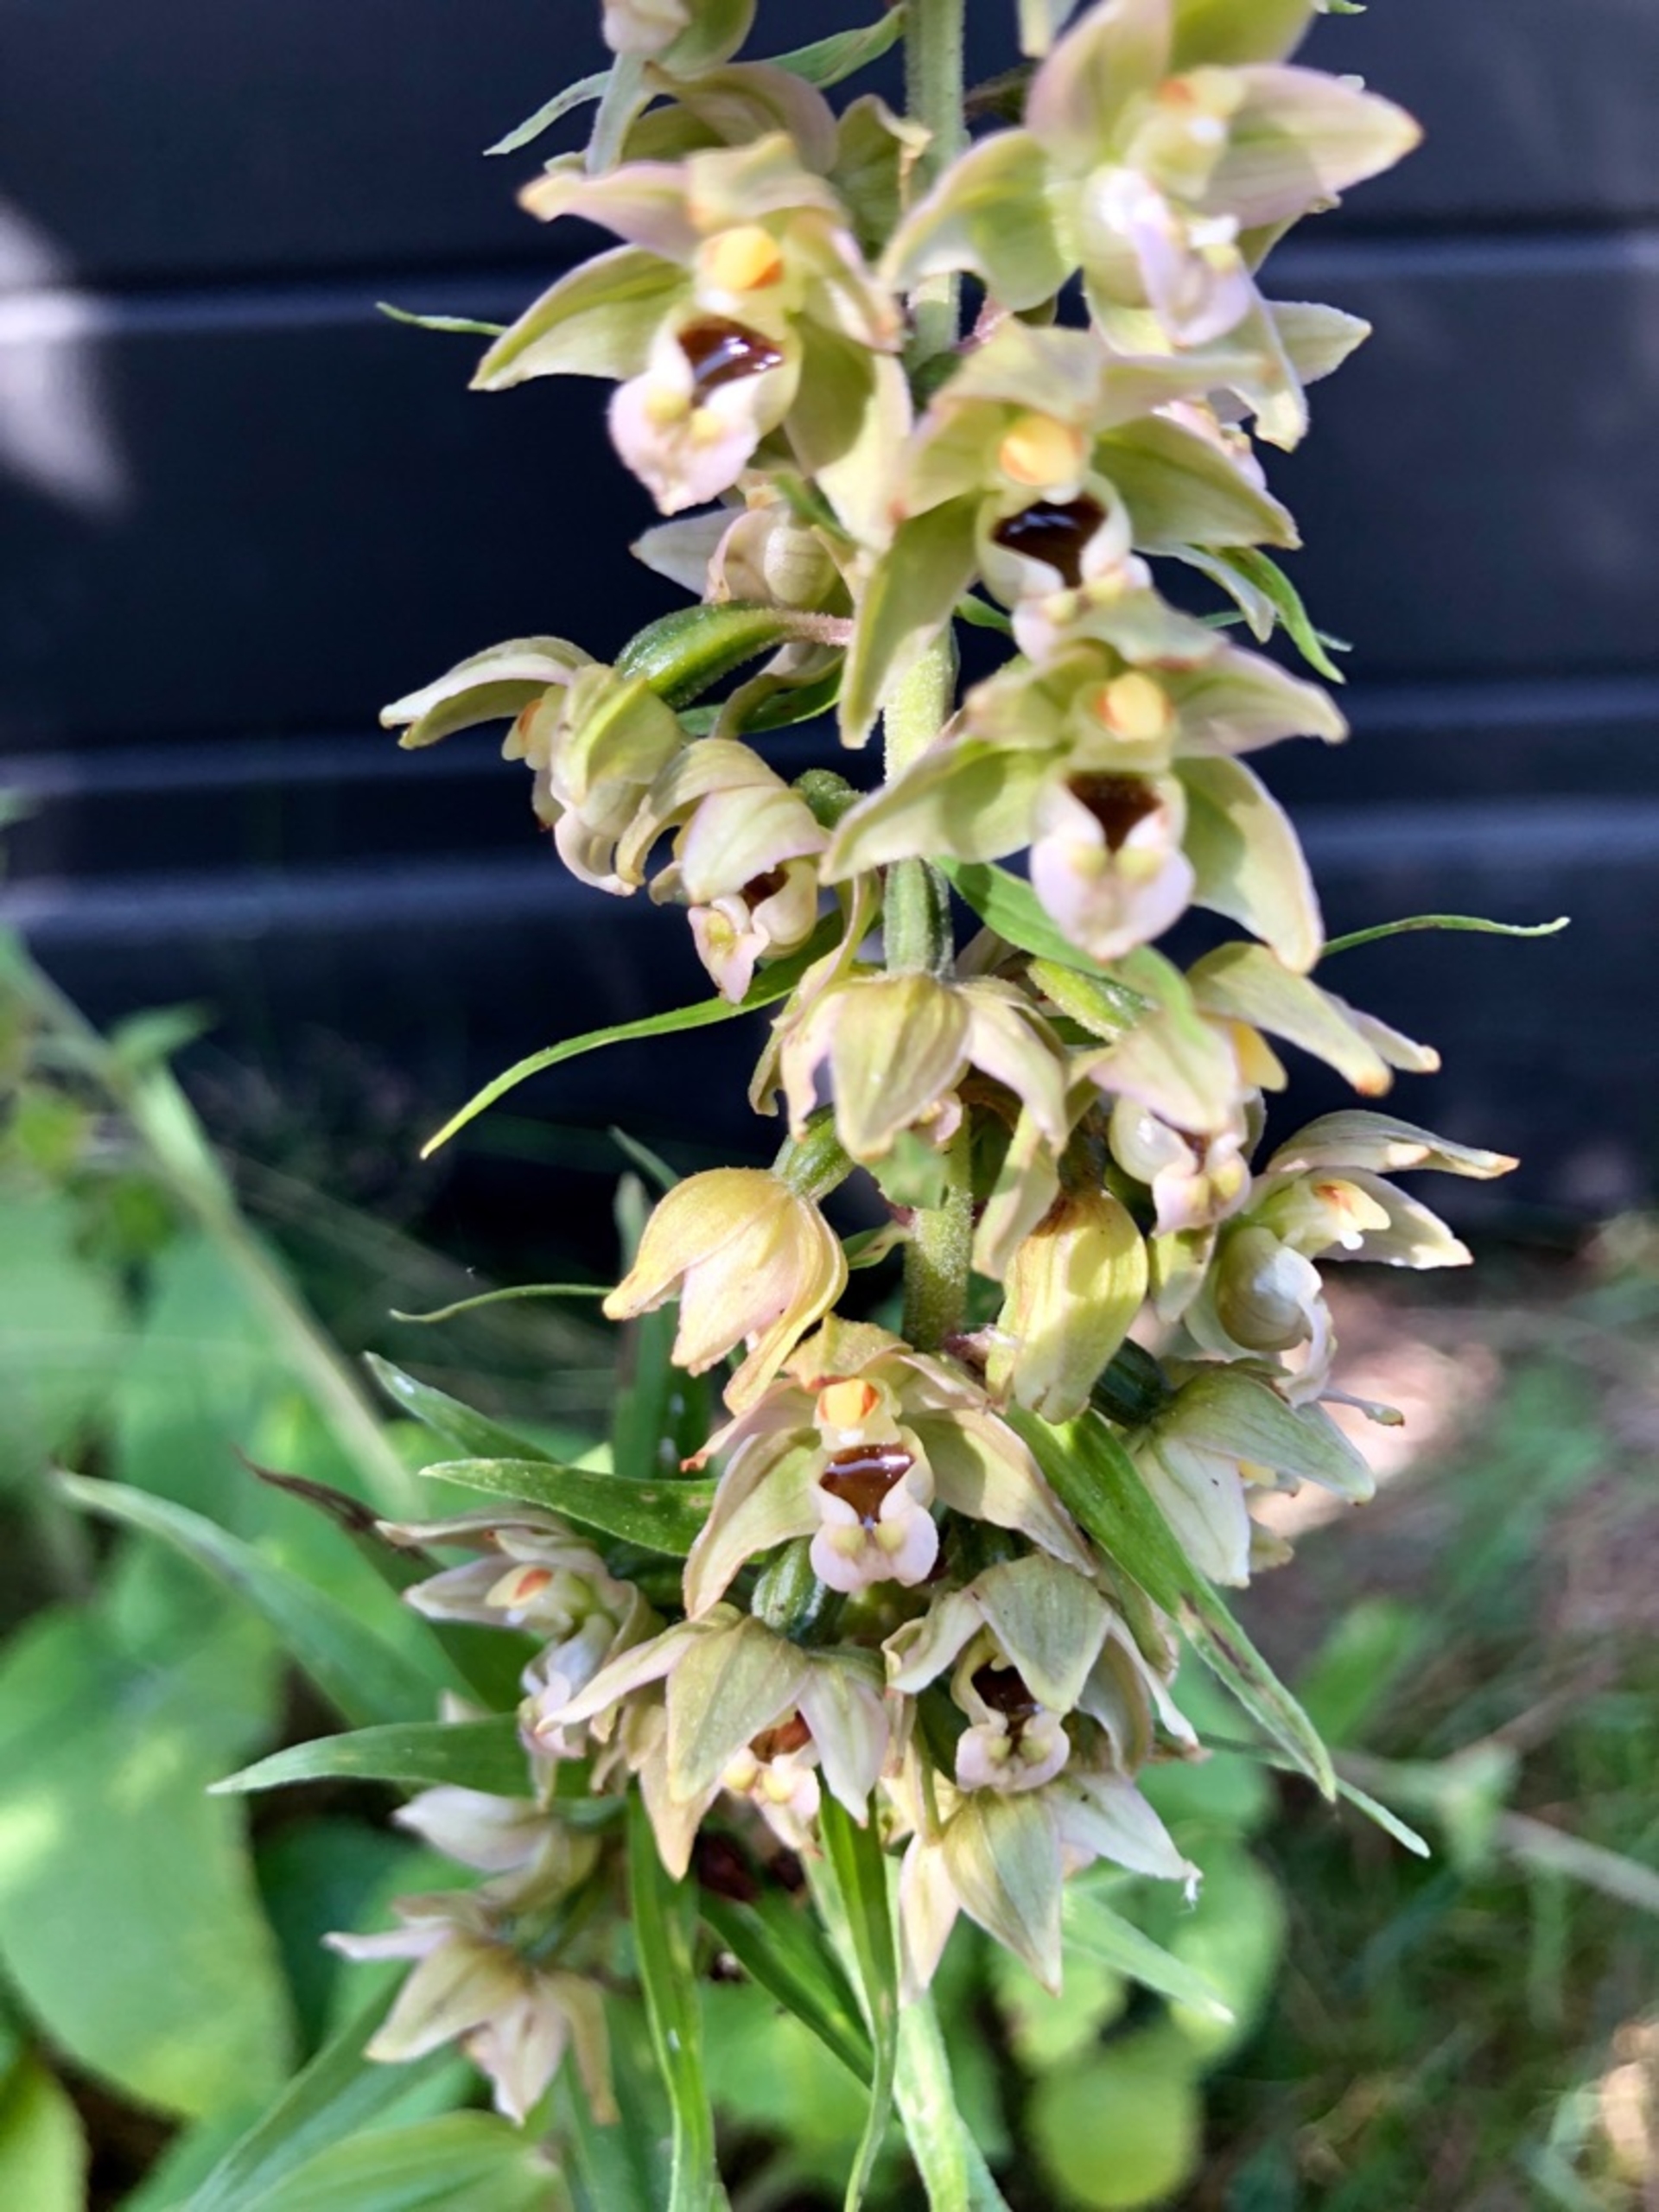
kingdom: Plantae
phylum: Tracheophyta
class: Liliopsida
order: Asparagales
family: Orchidaceae
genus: Epipactis
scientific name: Epipactis helleborine
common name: Skov-hullæbe
